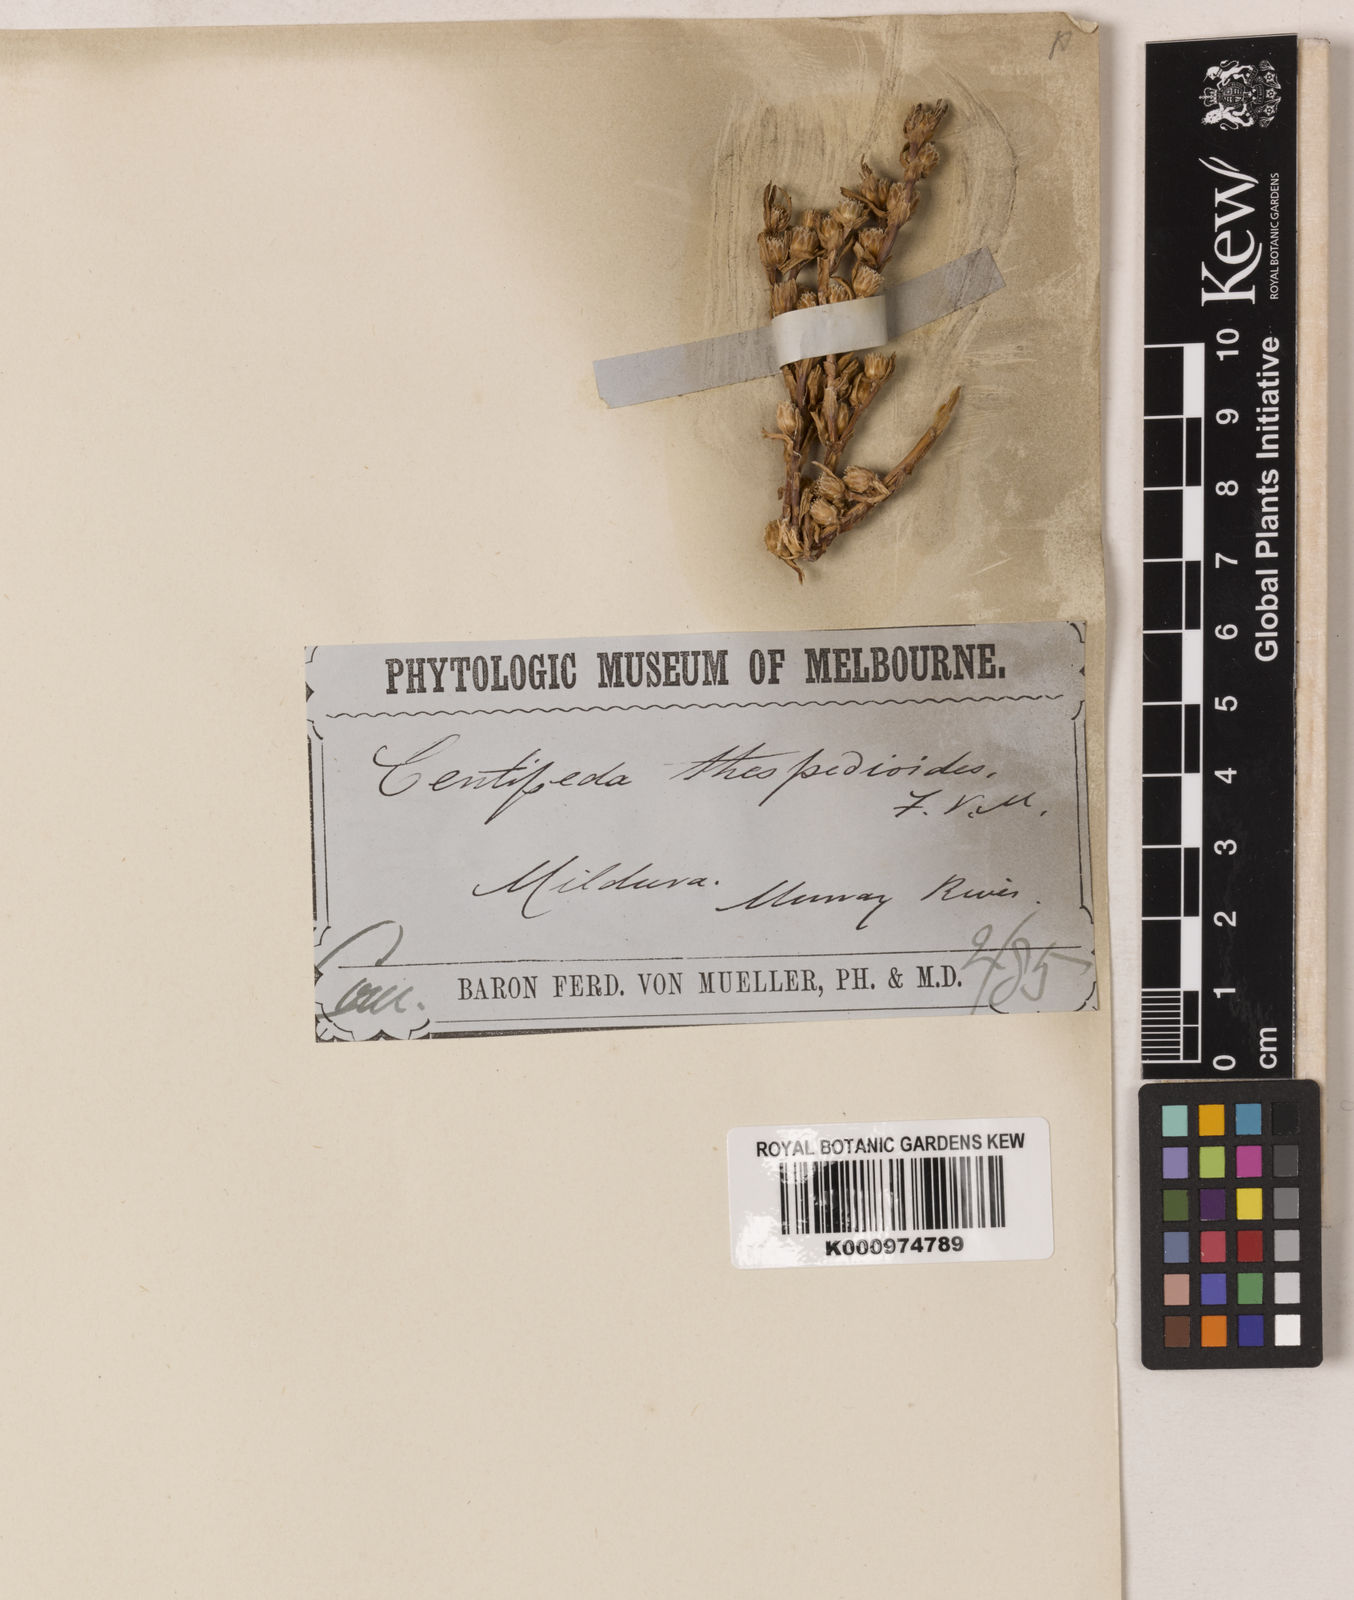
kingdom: Plantae
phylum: Tracheophyta
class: Magnoliopsida
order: Asterales
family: Asteraceae
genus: Centipeda
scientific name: Centipeda thespidioides
